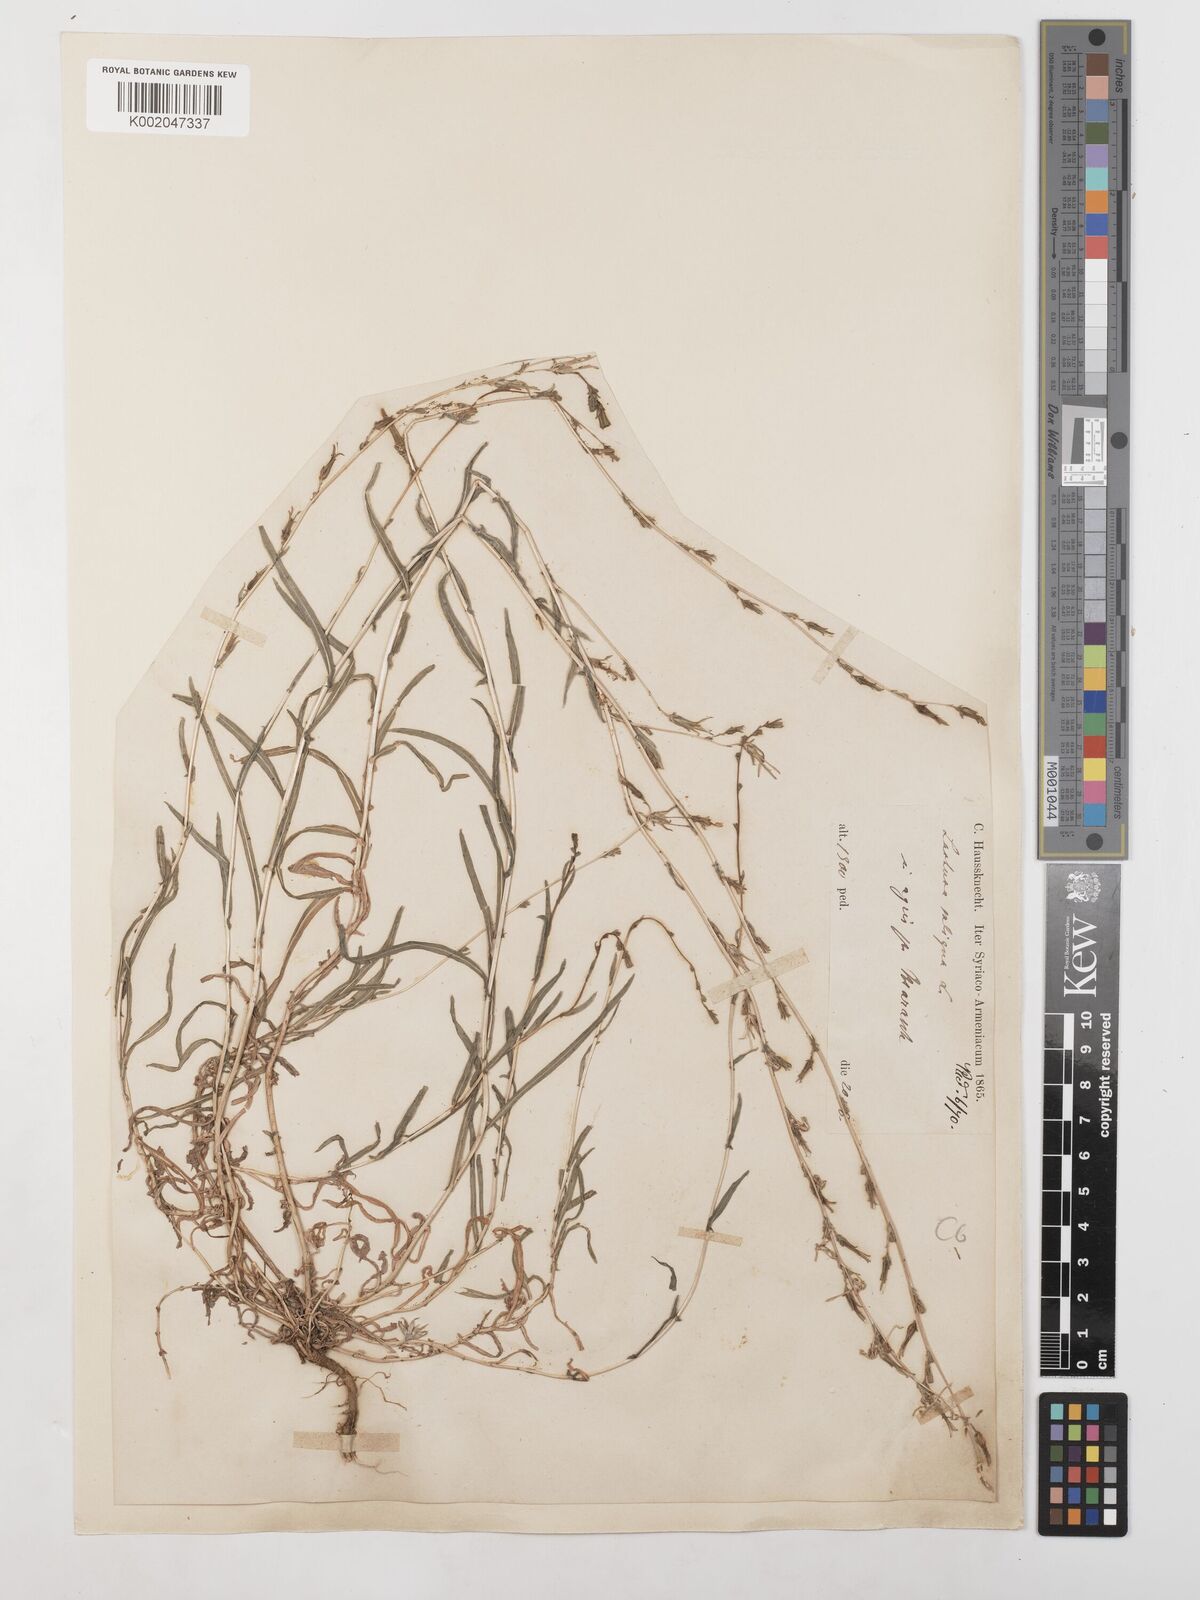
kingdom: Plantae
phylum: Tracheophyta
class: Magnoliopsida
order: Asterales
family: Asteraceae
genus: Lactuca
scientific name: Lactuca saligna
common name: Wild lettuce
